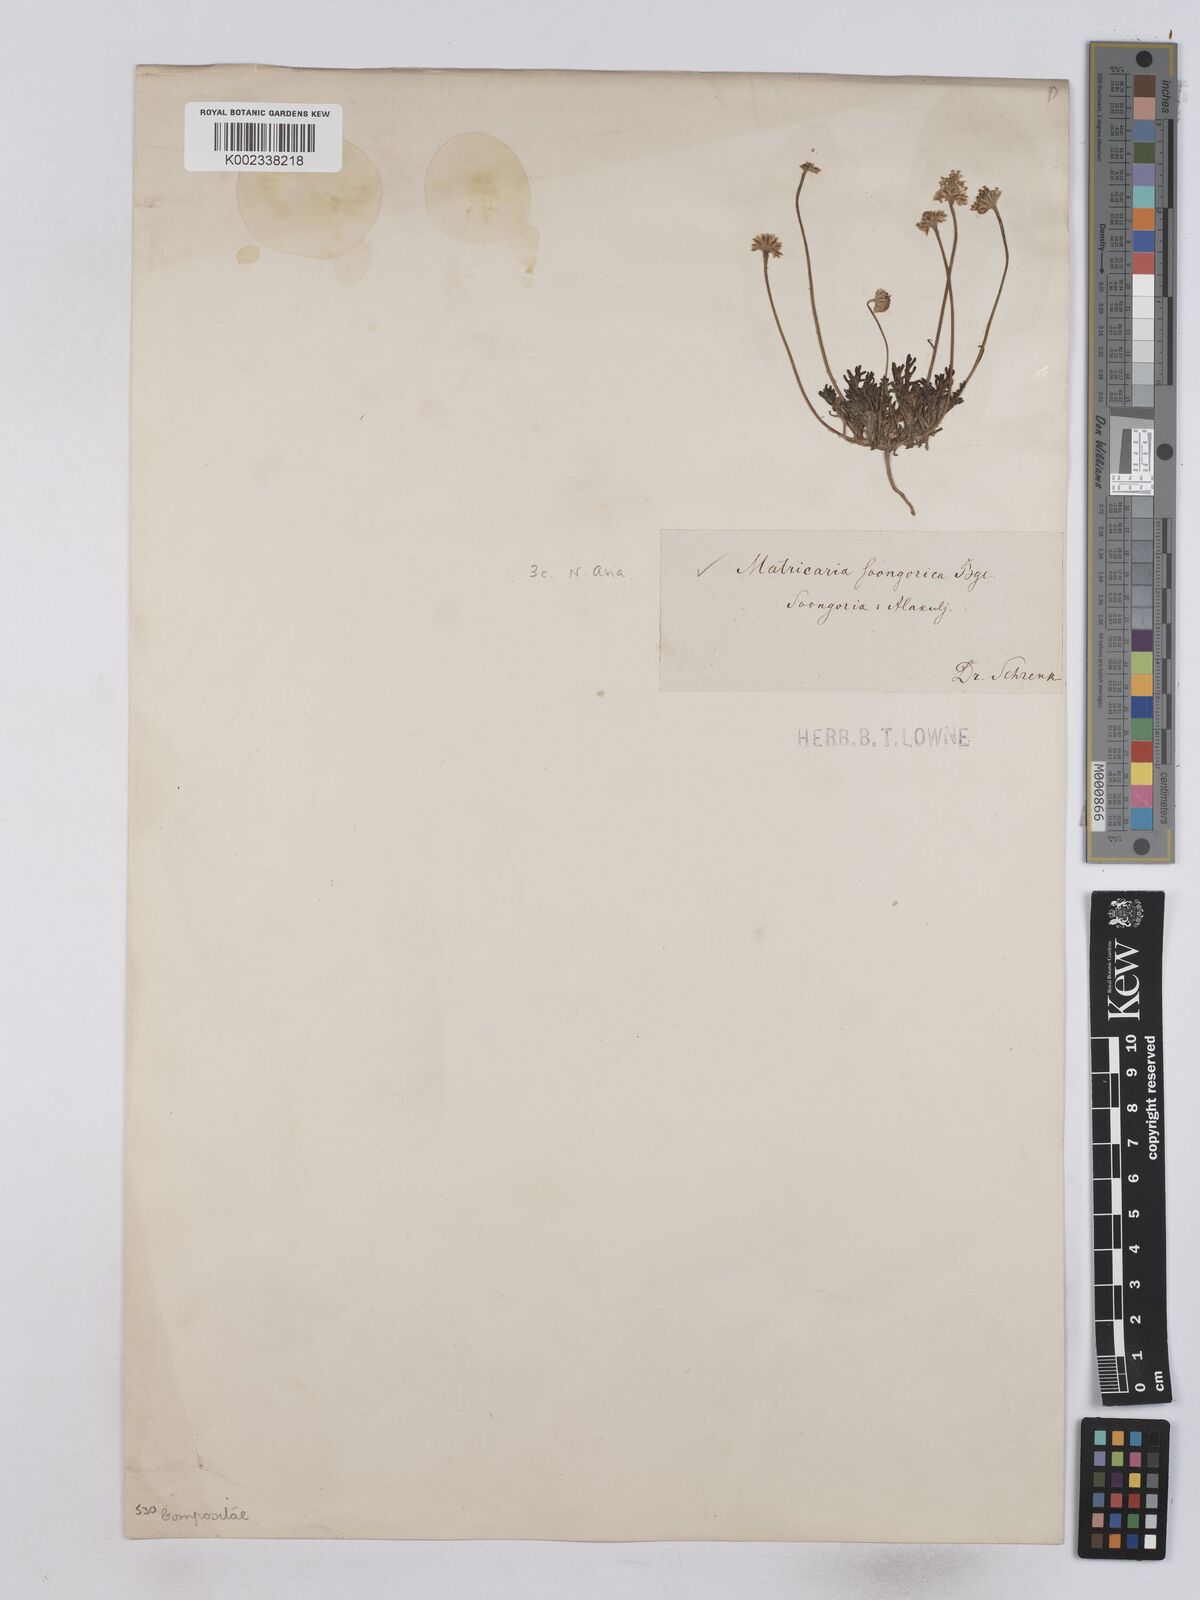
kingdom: Plantae
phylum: Tracheophyta
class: Magnoliopsida
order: Asterales
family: Asteraceae
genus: Matricaria
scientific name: Matricaria
